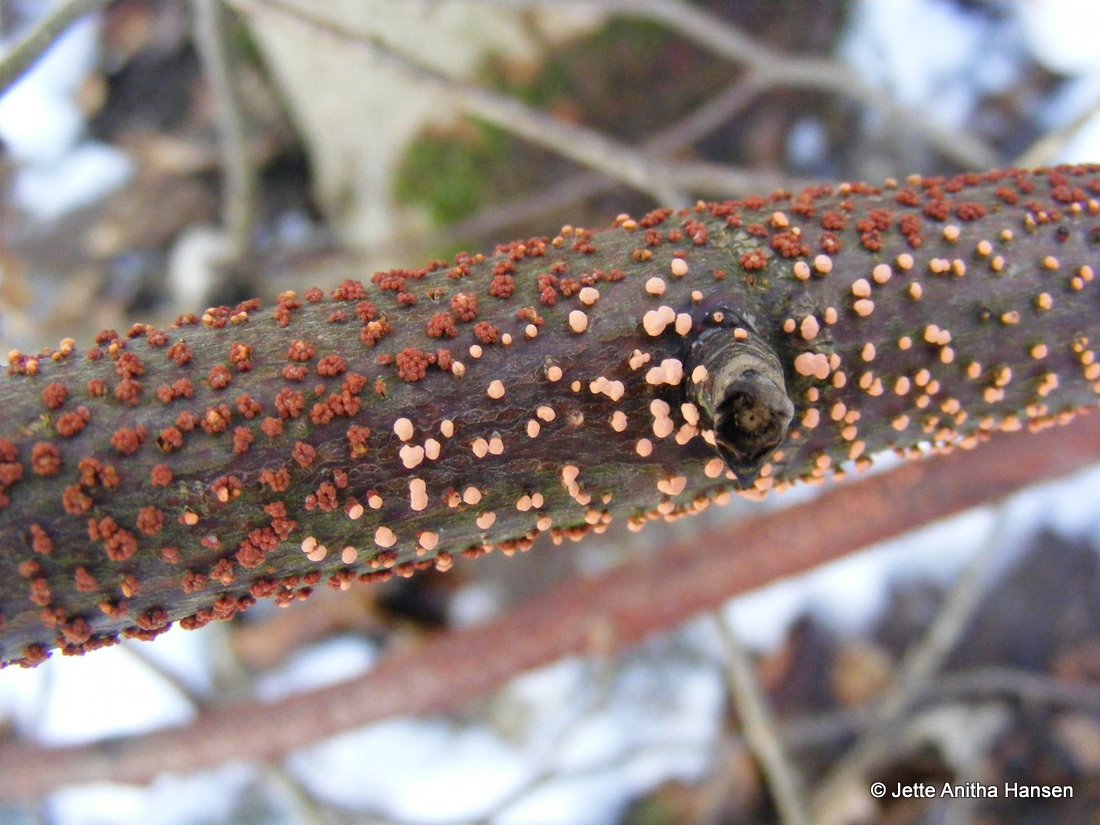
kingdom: Fungi
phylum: Ascomycota
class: Sordariomycetes
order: Hypocreales
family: Nectriaceae
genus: Nectria
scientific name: Nectria cinnabarina
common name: almindelig cinnobersvamp
